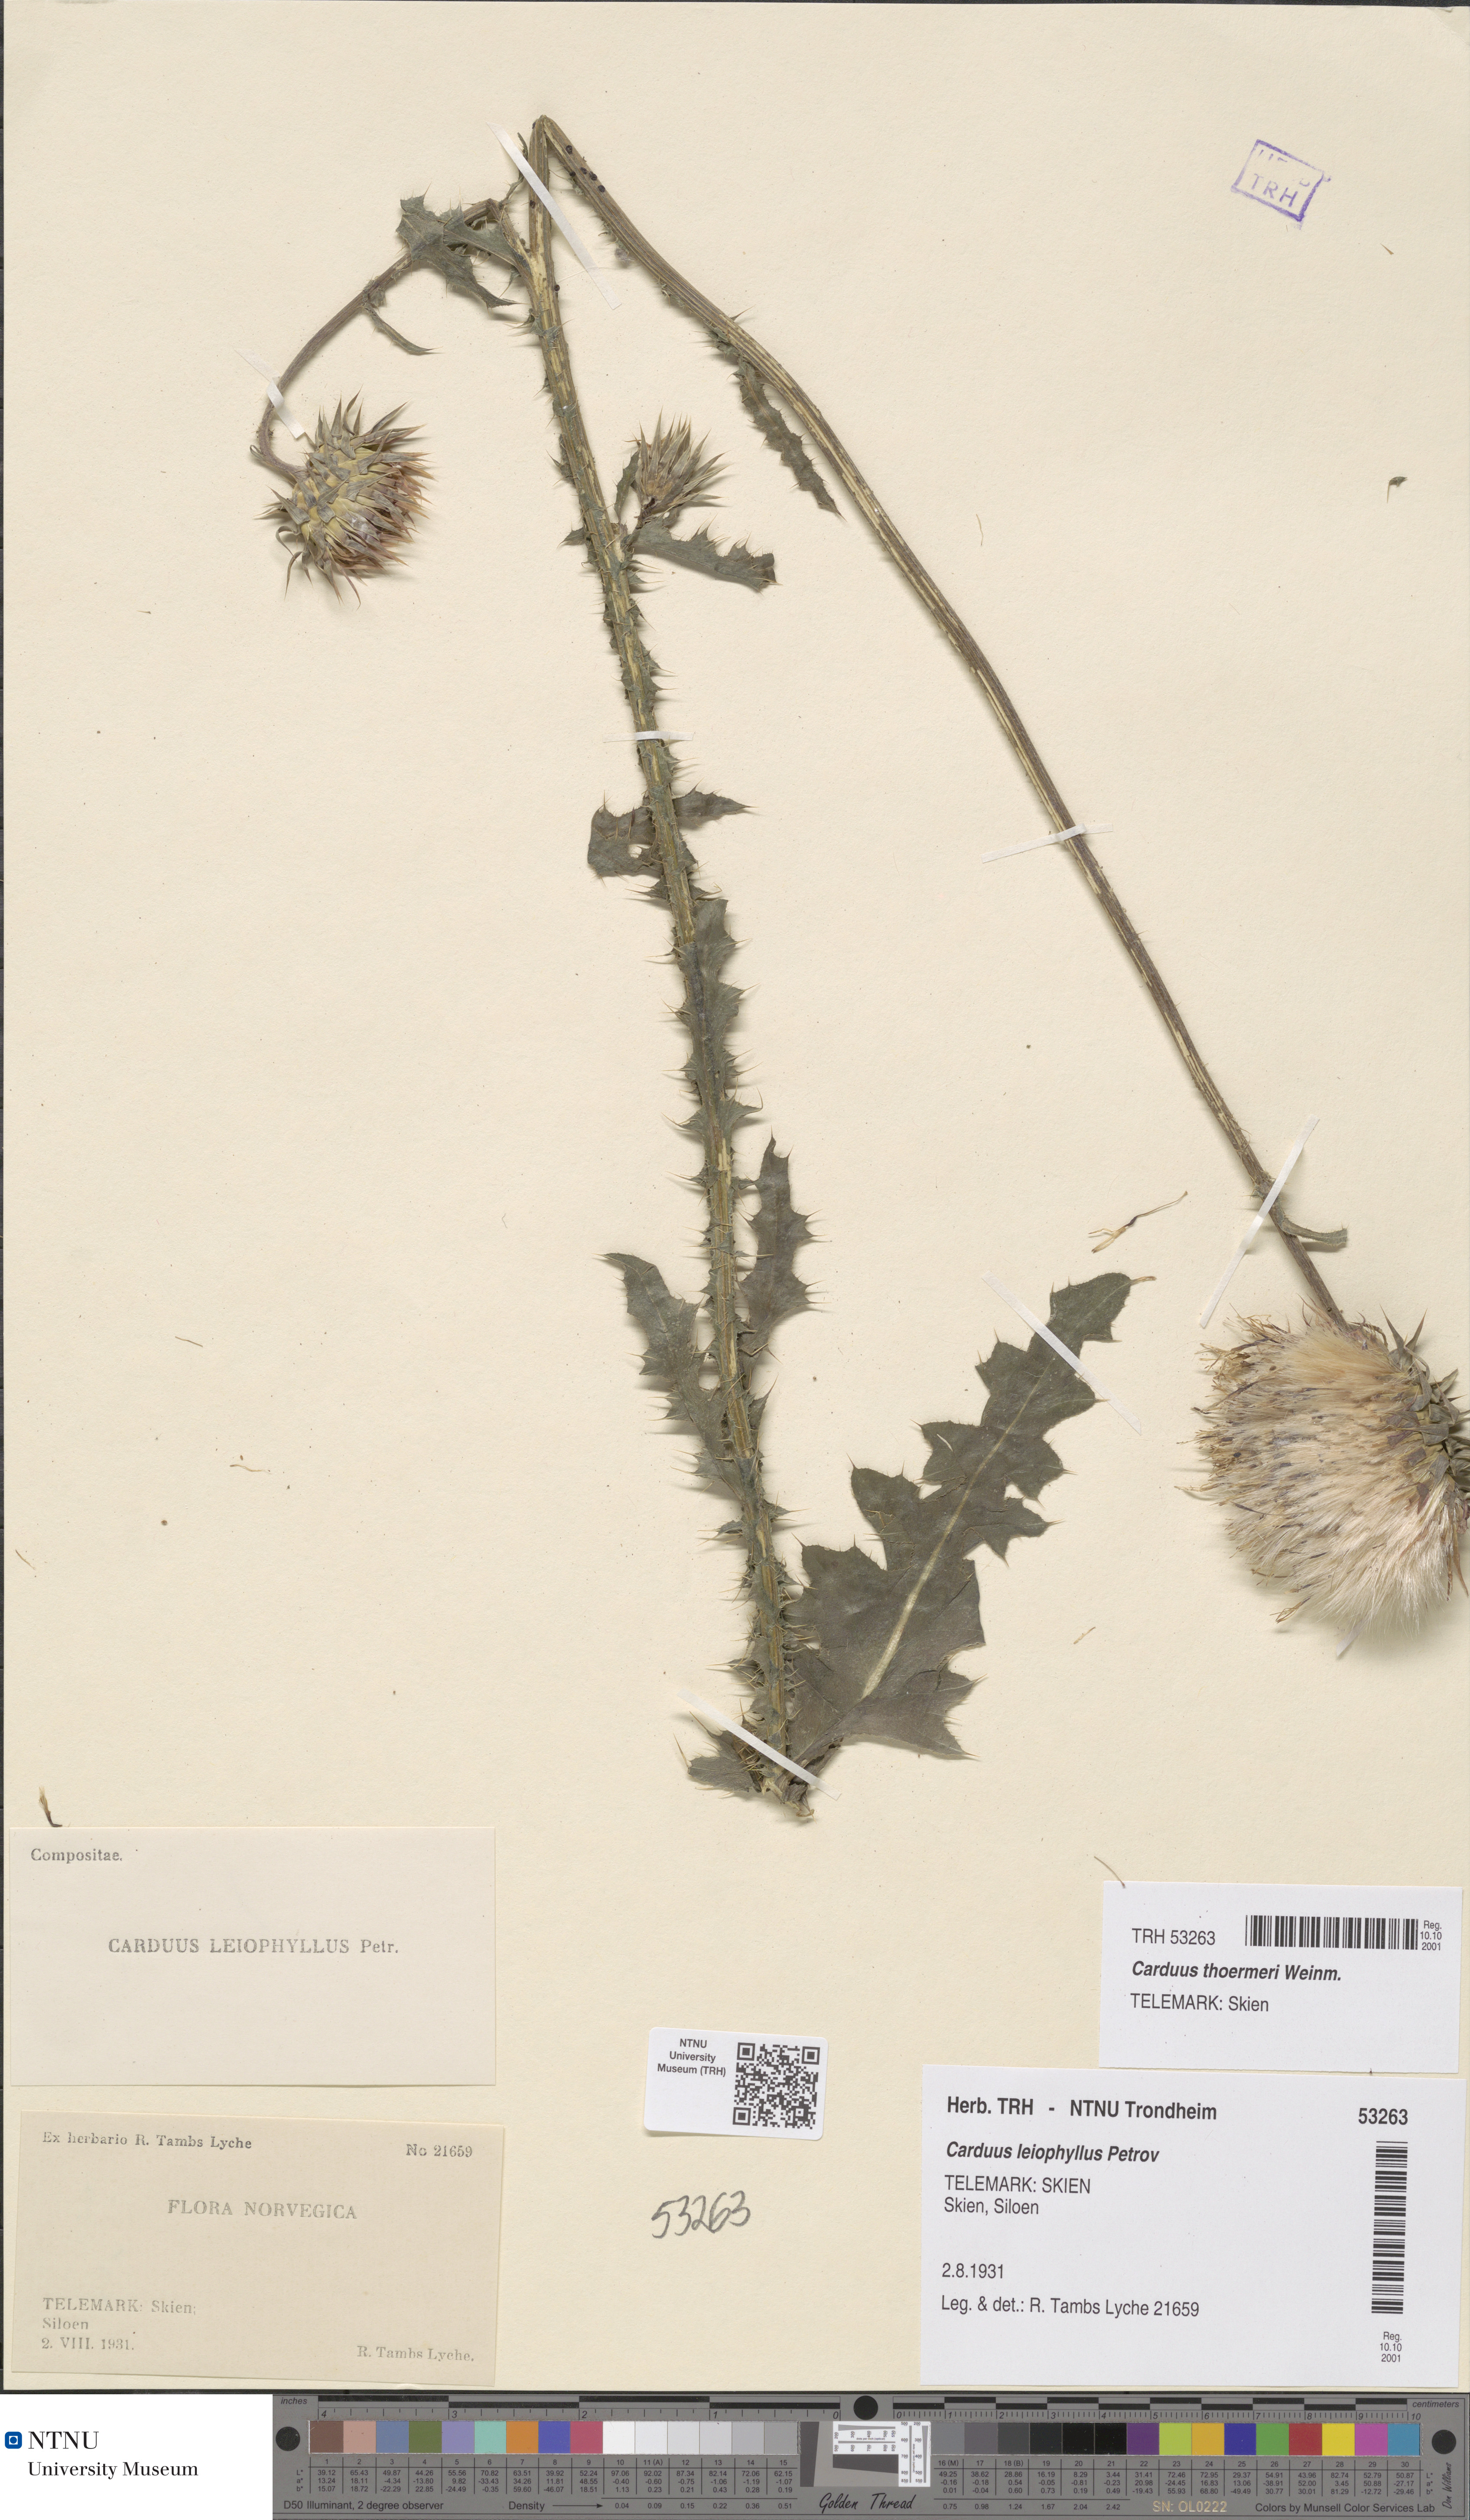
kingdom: Plantae
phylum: Tracheophyta
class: Magnoliopsida
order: Asterales
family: Asteraceae
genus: Carduus
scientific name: Carduus nutans
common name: Musk thistle
